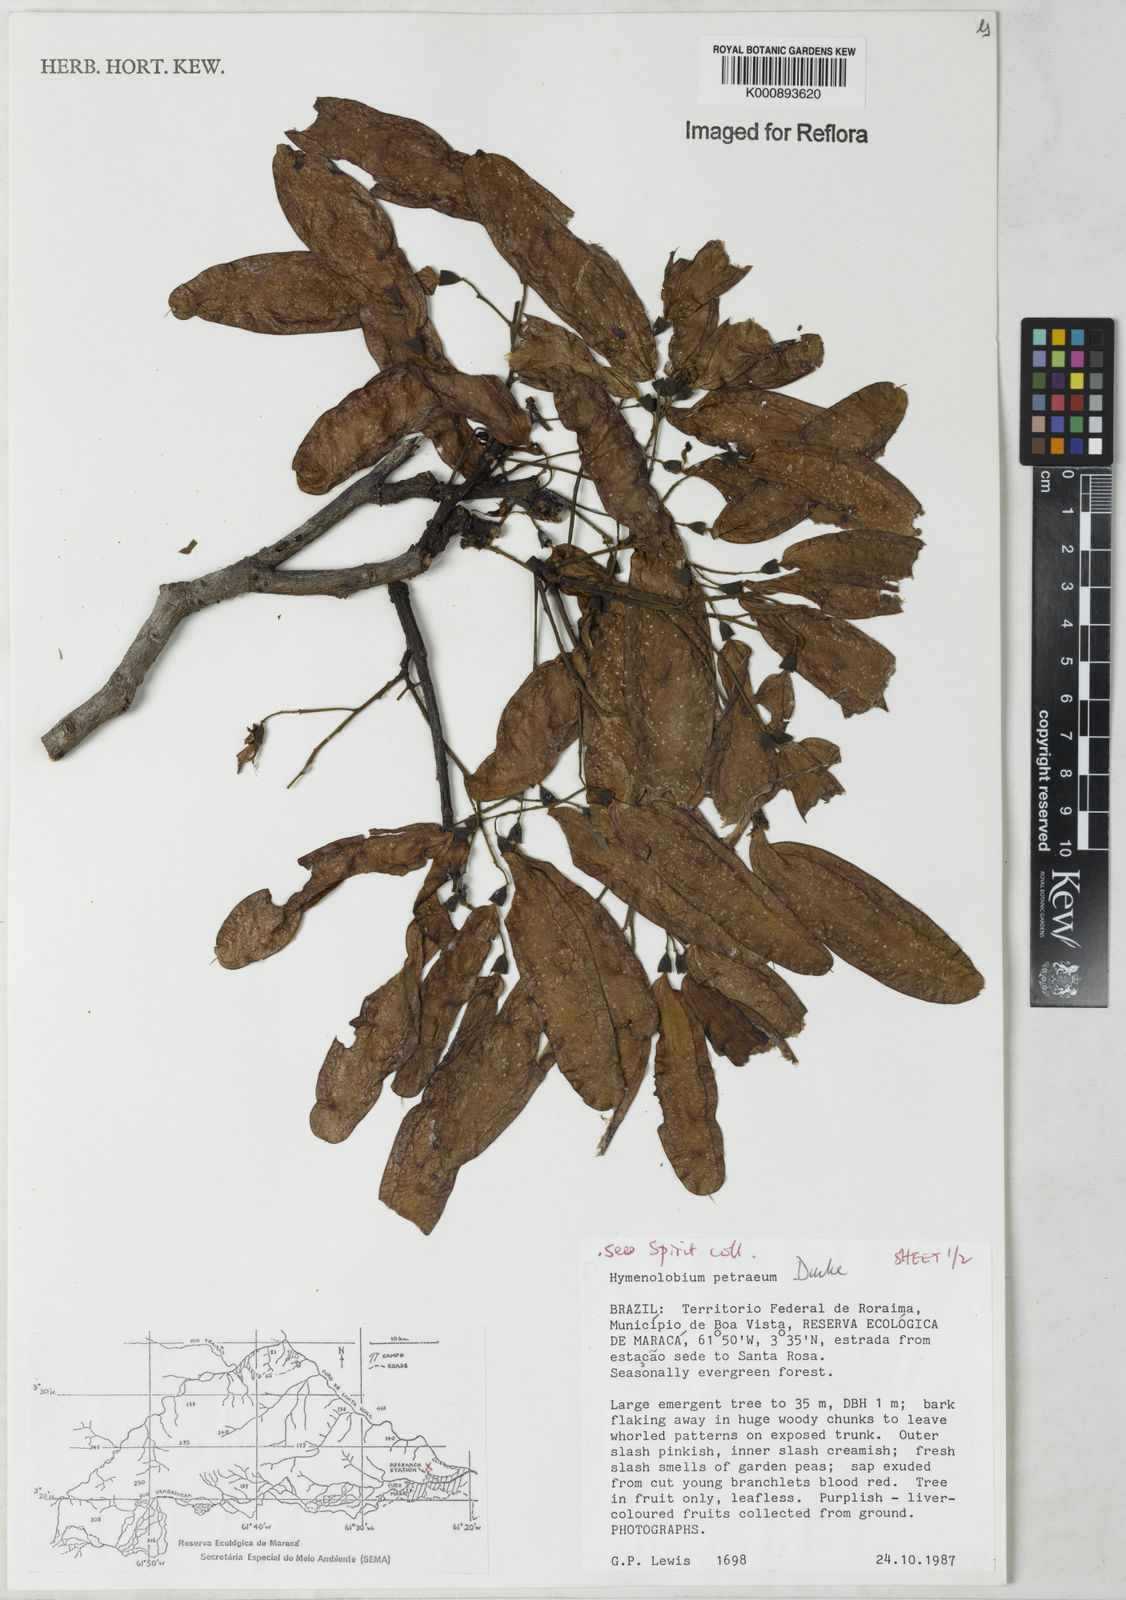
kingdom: Plantae
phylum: Tracheophyta
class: Magnoliopsida
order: Fabales
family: Fabaceae
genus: Hymenolobium
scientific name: Hymenolobium petraeum
